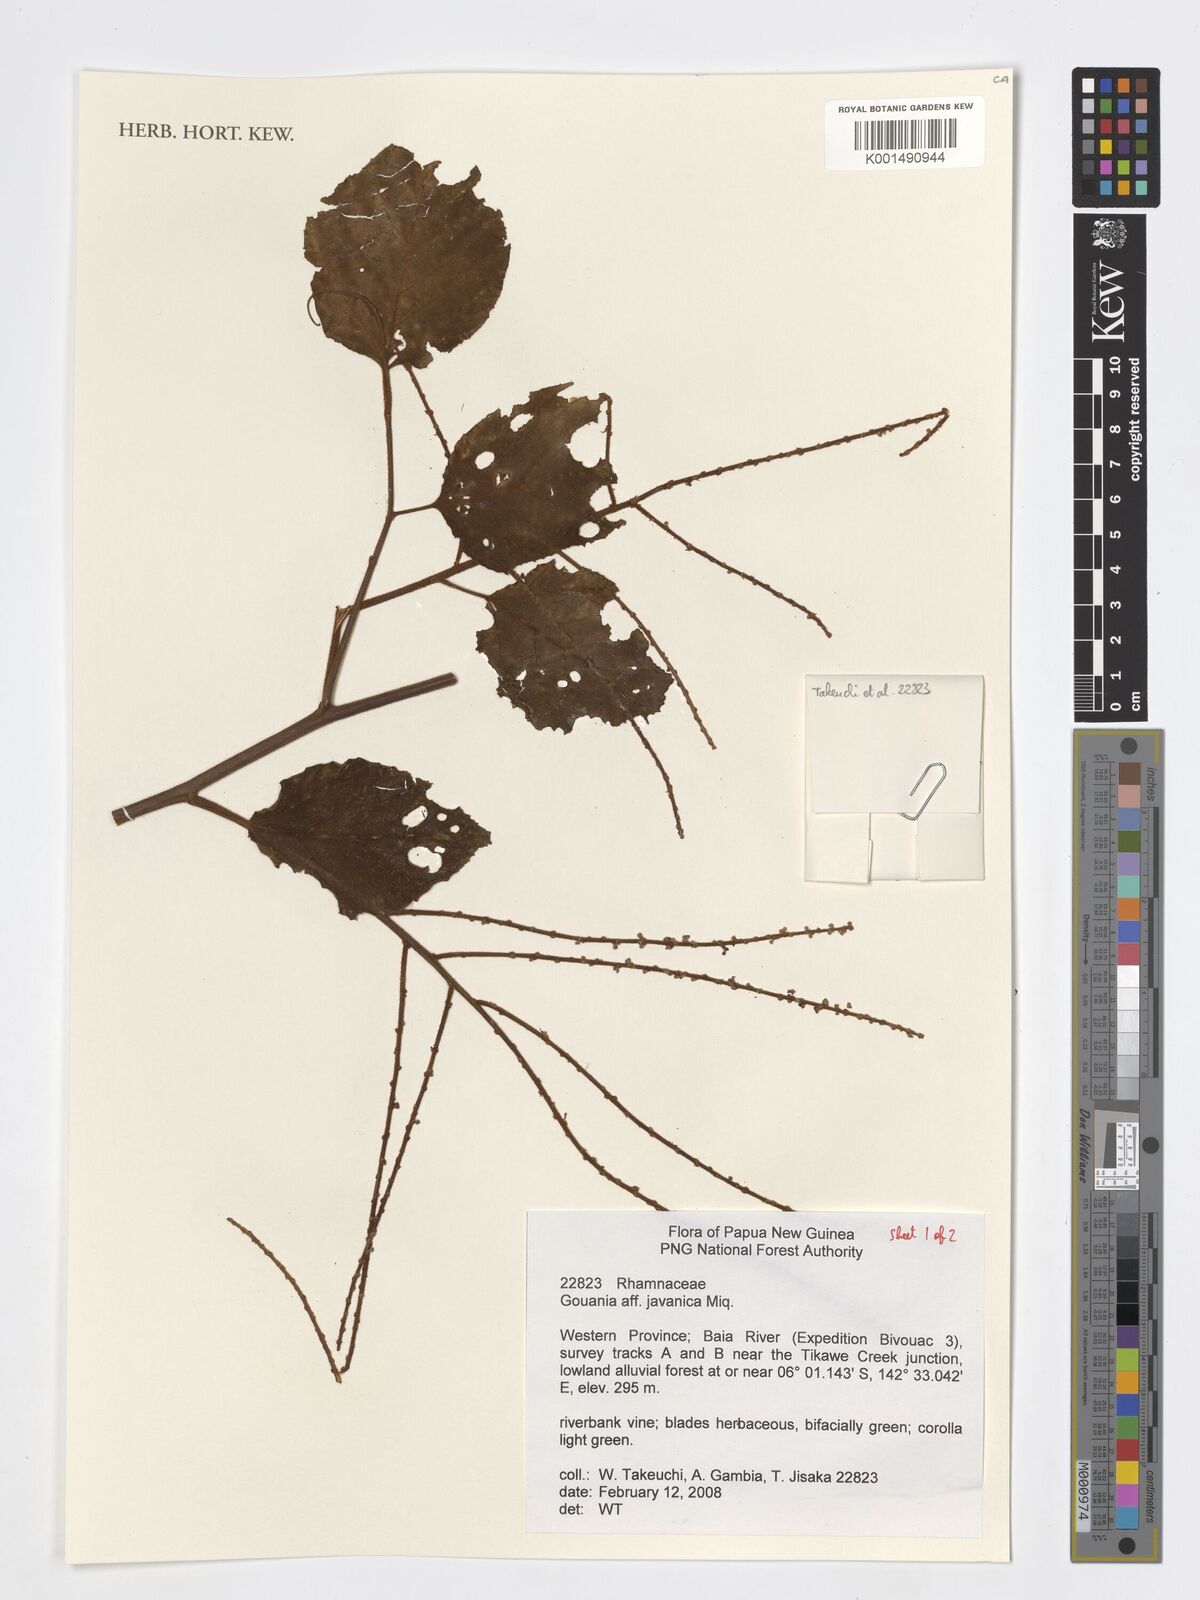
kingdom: Plantae
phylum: Tracheophyta
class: Magnoliopsida
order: Rosales
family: Rhamnaceae
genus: Gouania
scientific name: Gouania obtusifolia
